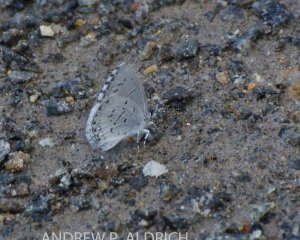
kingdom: Animalia
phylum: Arthropoda
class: Insecta
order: Lepidoptera
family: Lycaenidae
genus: Celastrina
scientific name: Celastrina
